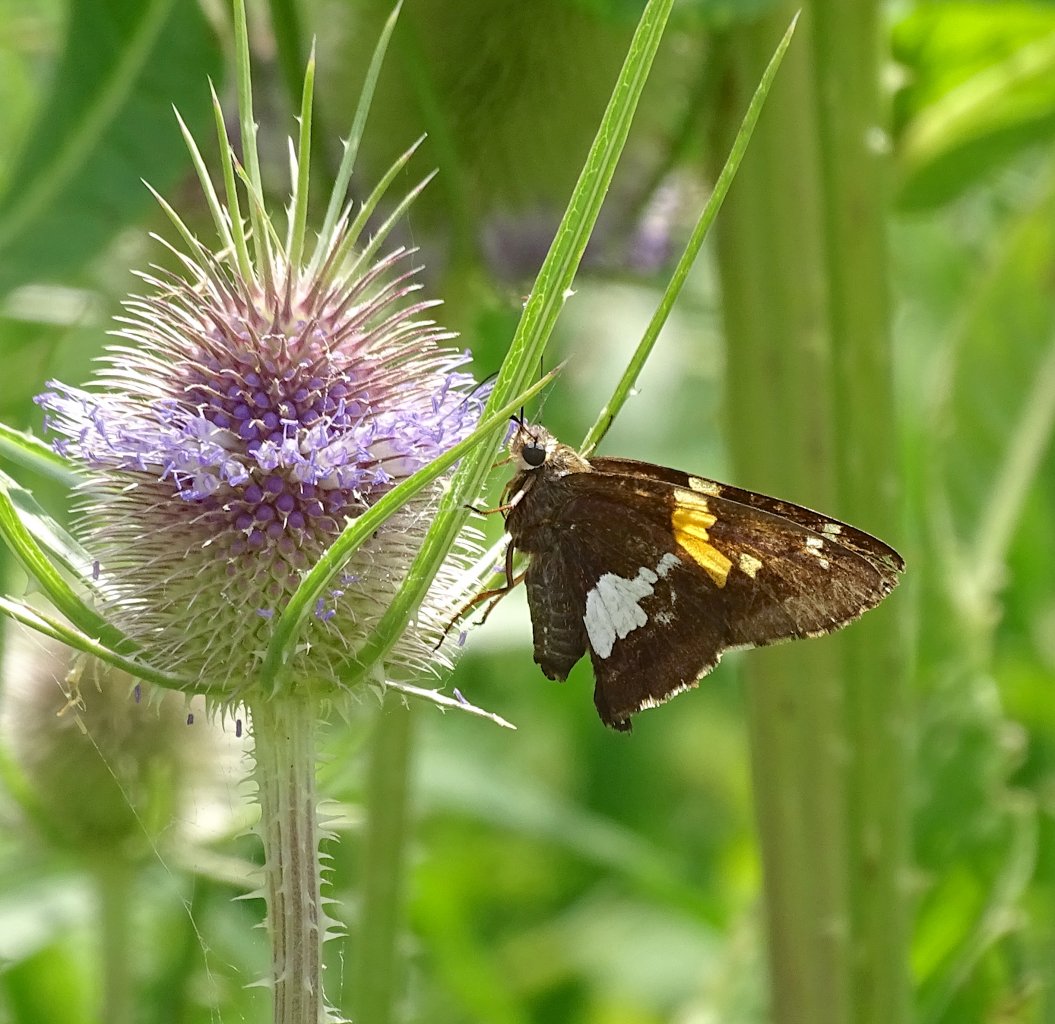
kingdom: Animalia
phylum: Arthropoda
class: Insecta
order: Lepidoptera
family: Hesperiidae
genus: Epargyreus
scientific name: Epargyreus clarus
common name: Silver-spotted Skipper
